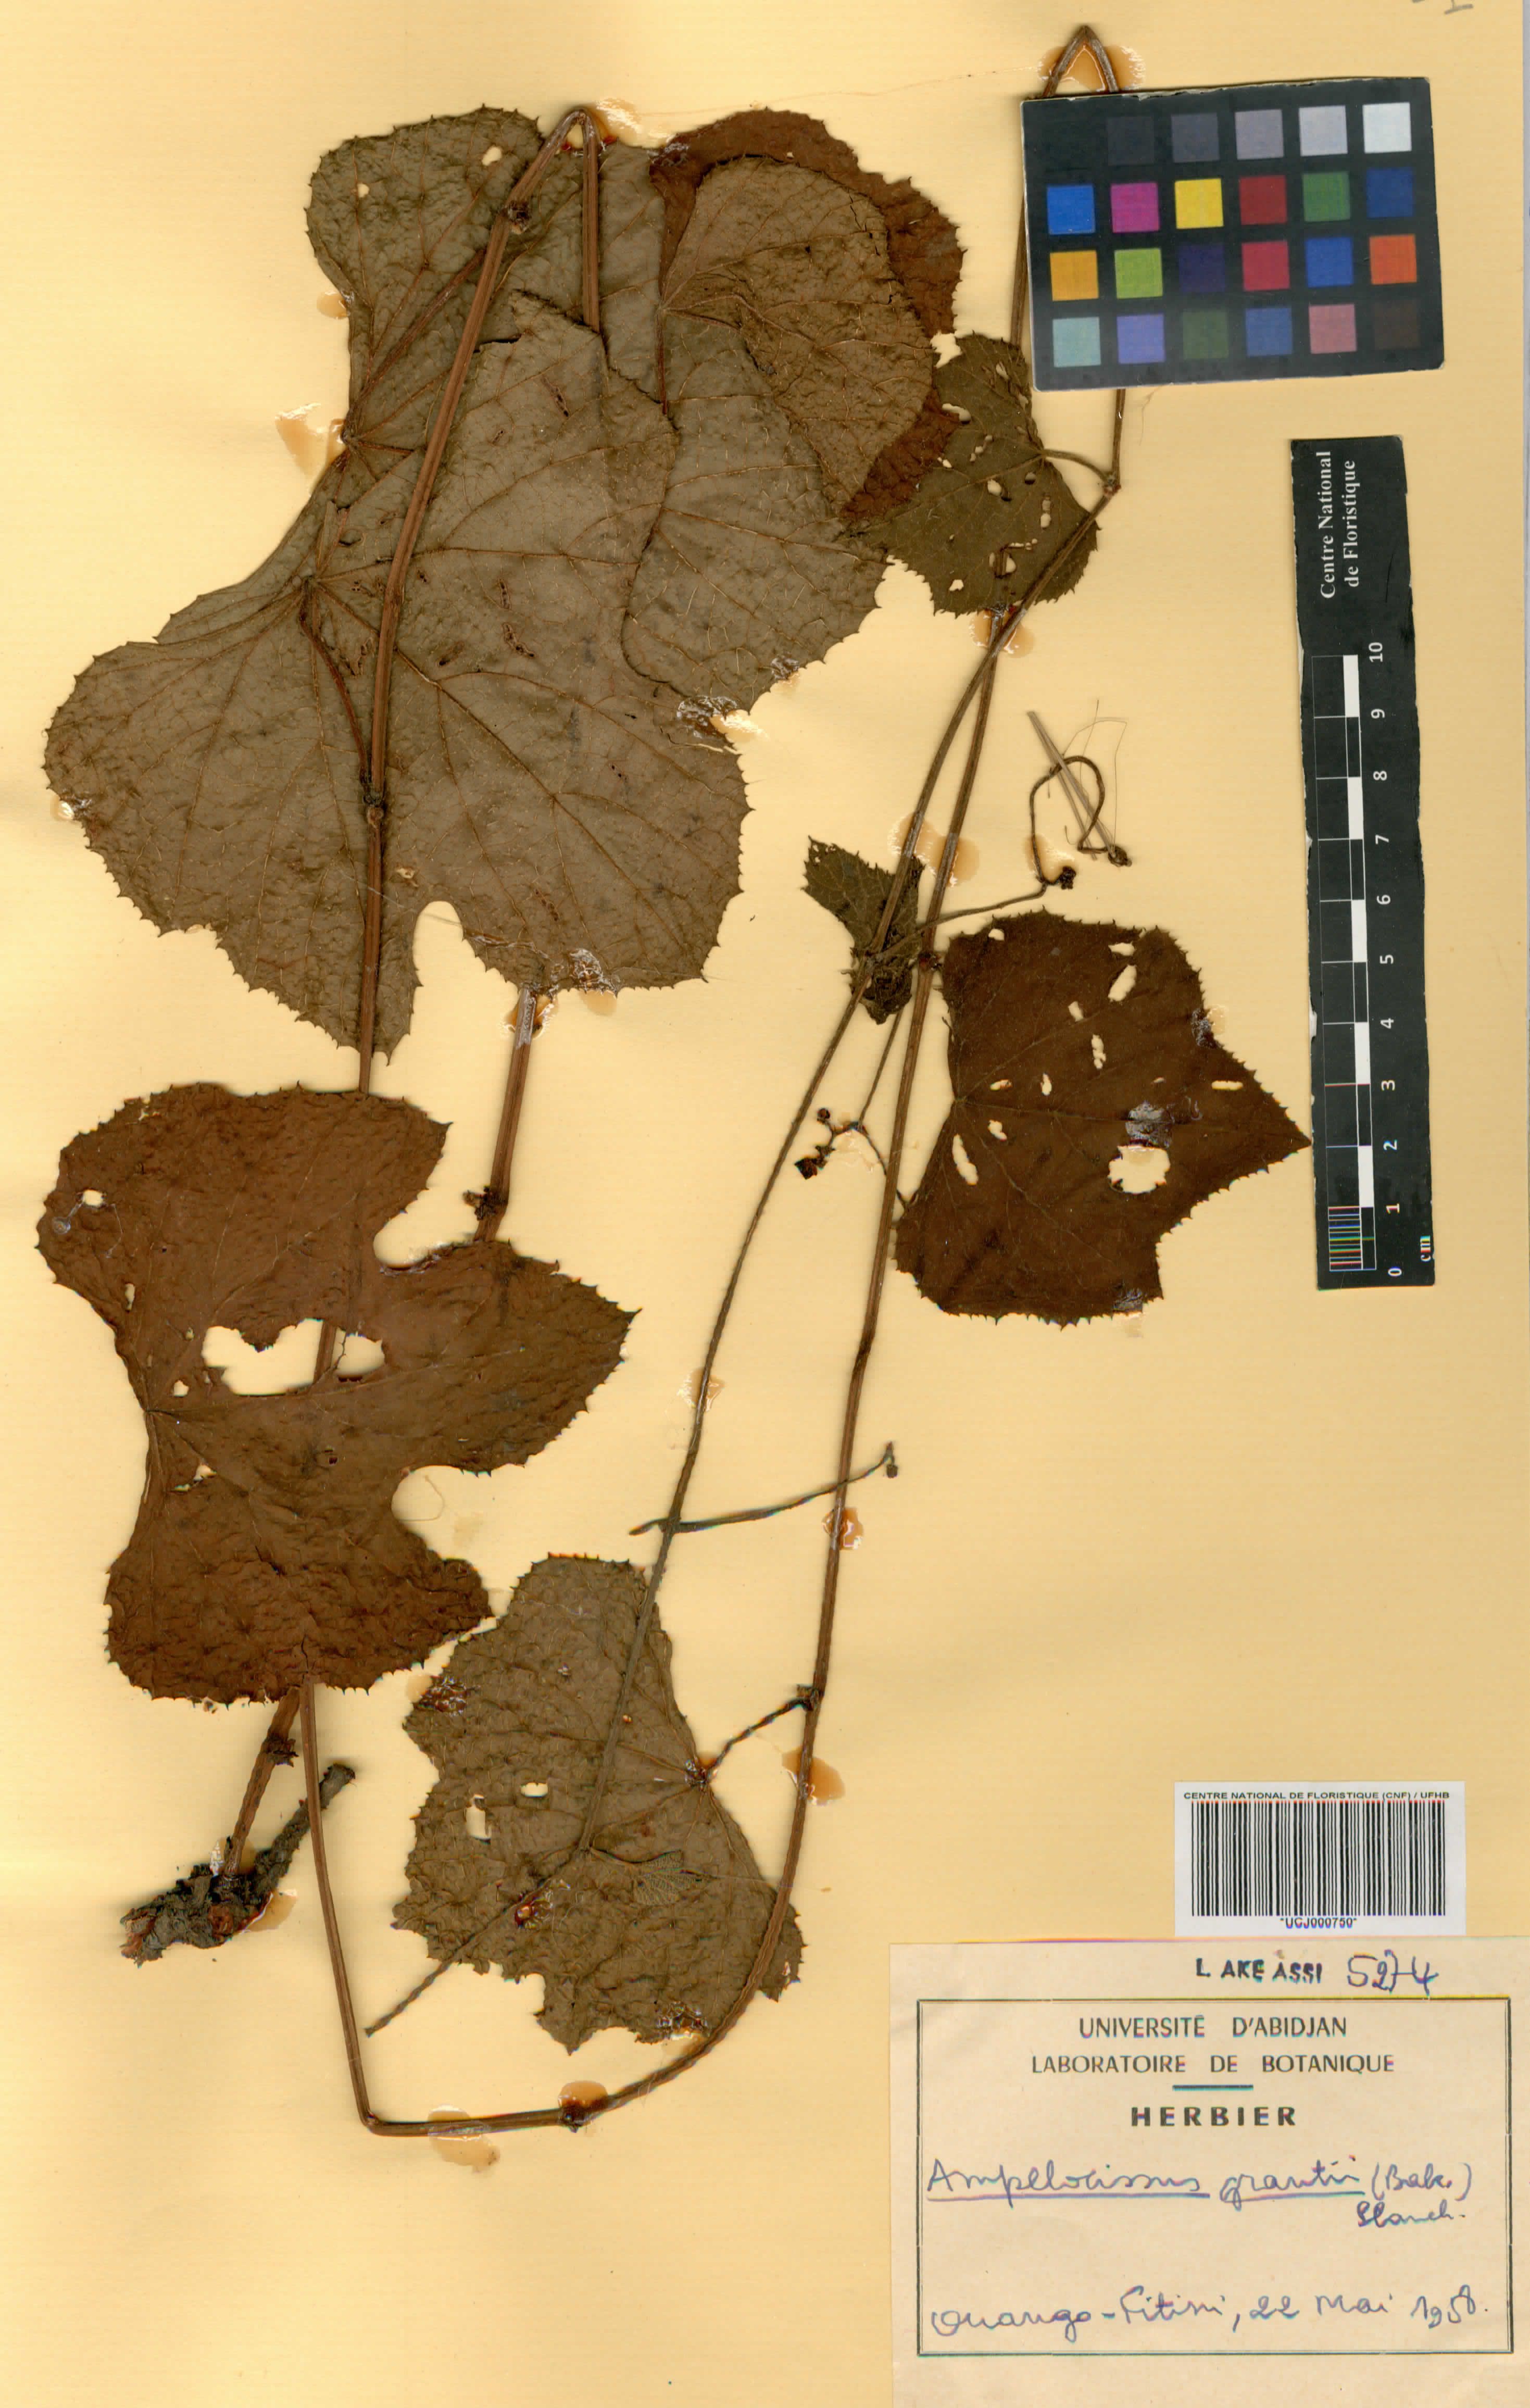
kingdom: Plantae
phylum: Tracheophyta
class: Magnoliopsida
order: Vitales
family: Vitaceae
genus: Ampelocissus
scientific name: Ampelocissus africana
